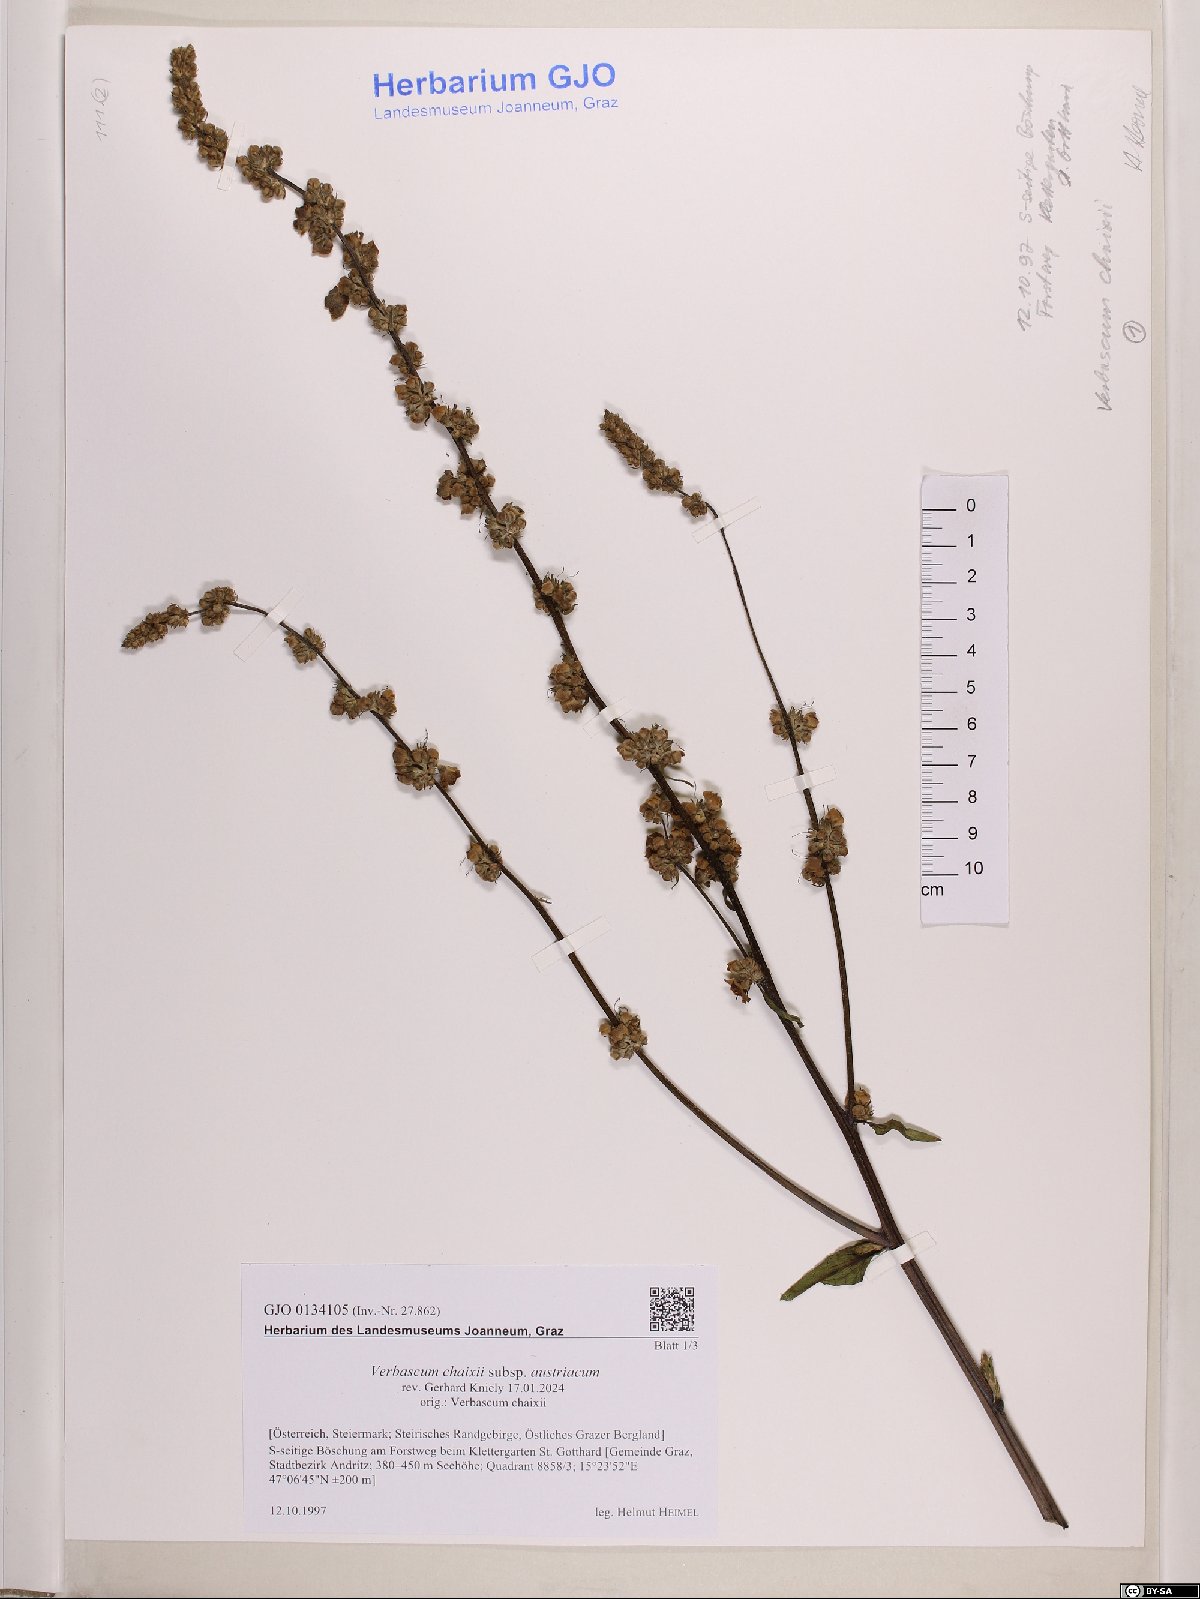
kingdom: Plantae
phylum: Tracheophyta
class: Magnoliopsida
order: Lamiales
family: Scrophulariaceae
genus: Verbascum
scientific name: Verbascum chaixii
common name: Nettle-leaved mullein
